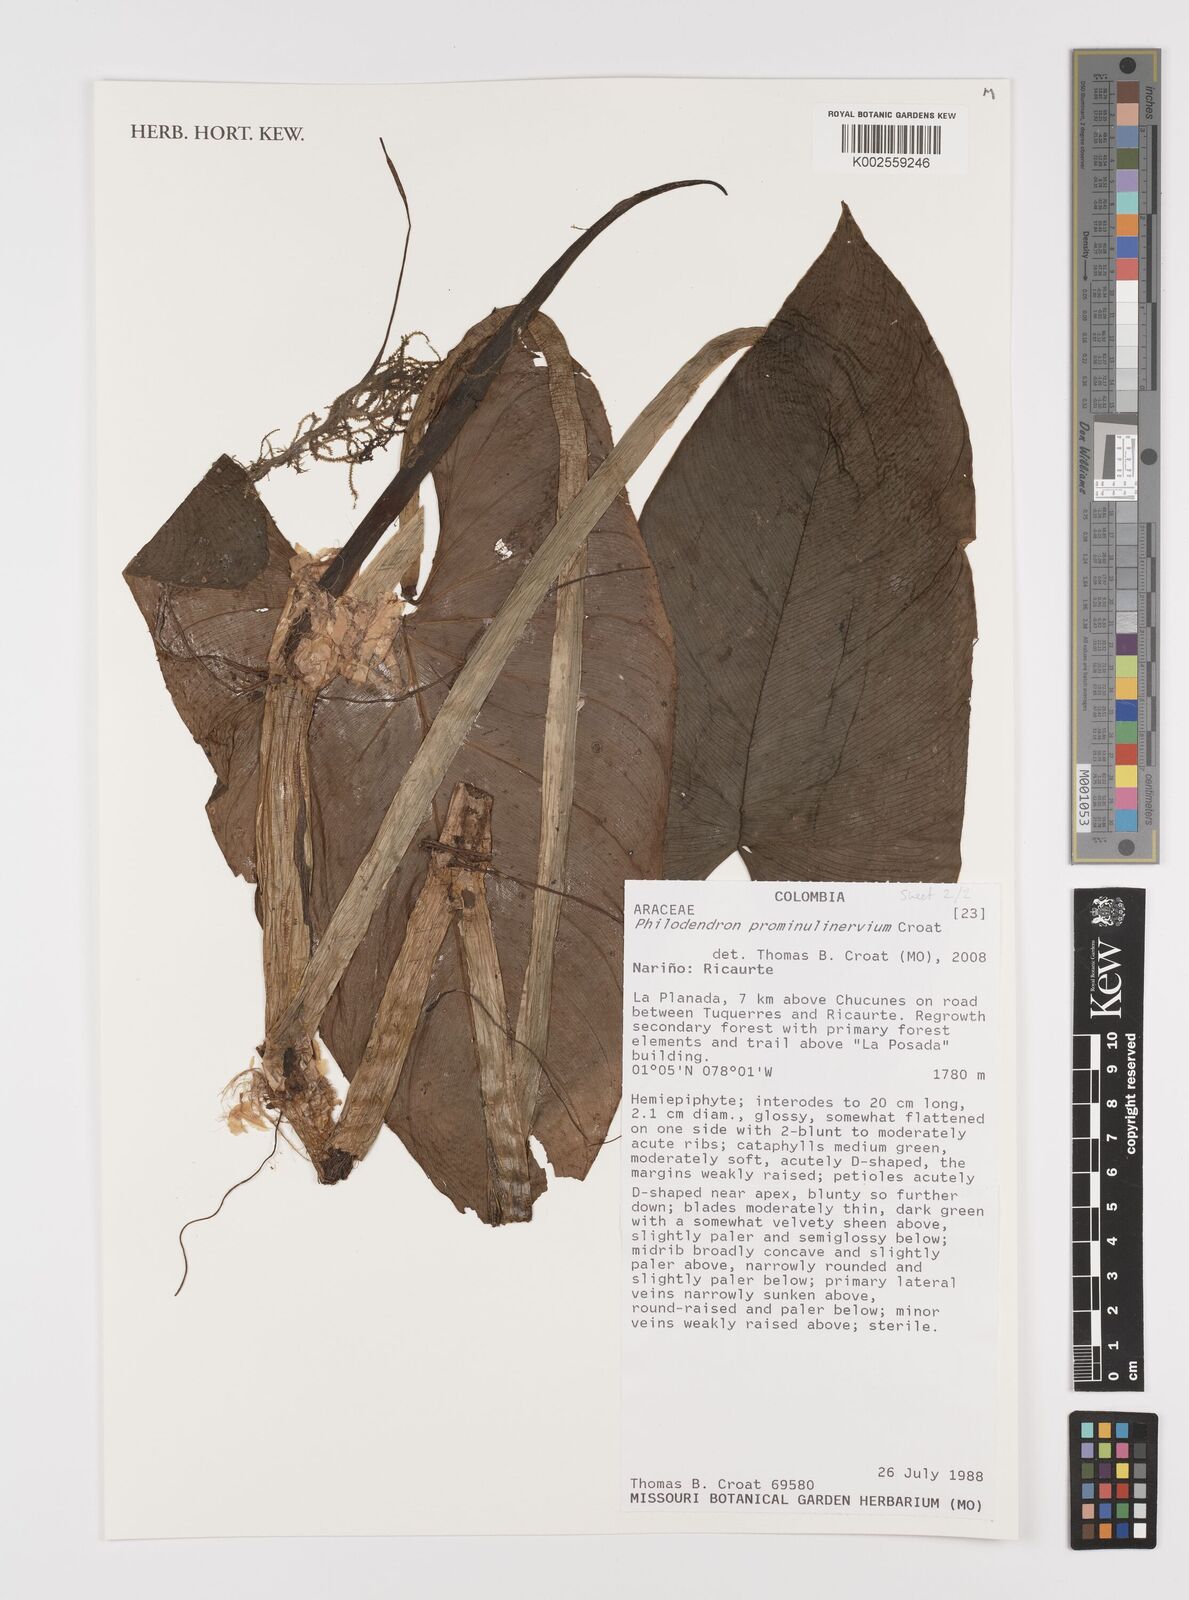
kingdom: Plantae
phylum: Tracheophyta
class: Liliopsida
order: Alismatales
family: Araceae
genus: Philodendron
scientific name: Philodendron prominulinervium
